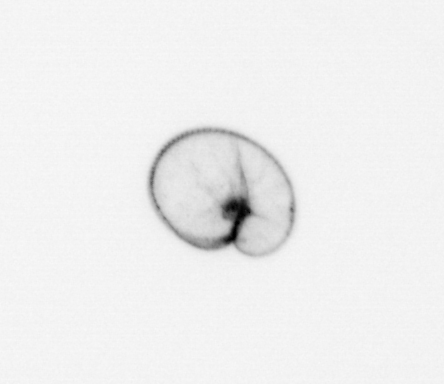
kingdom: Chromista
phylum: Myzozoa
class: Dinophyceae
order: Noctilucales
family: Noctilucaceae
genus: Noctiluca
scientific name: Noctiluca scintillans
